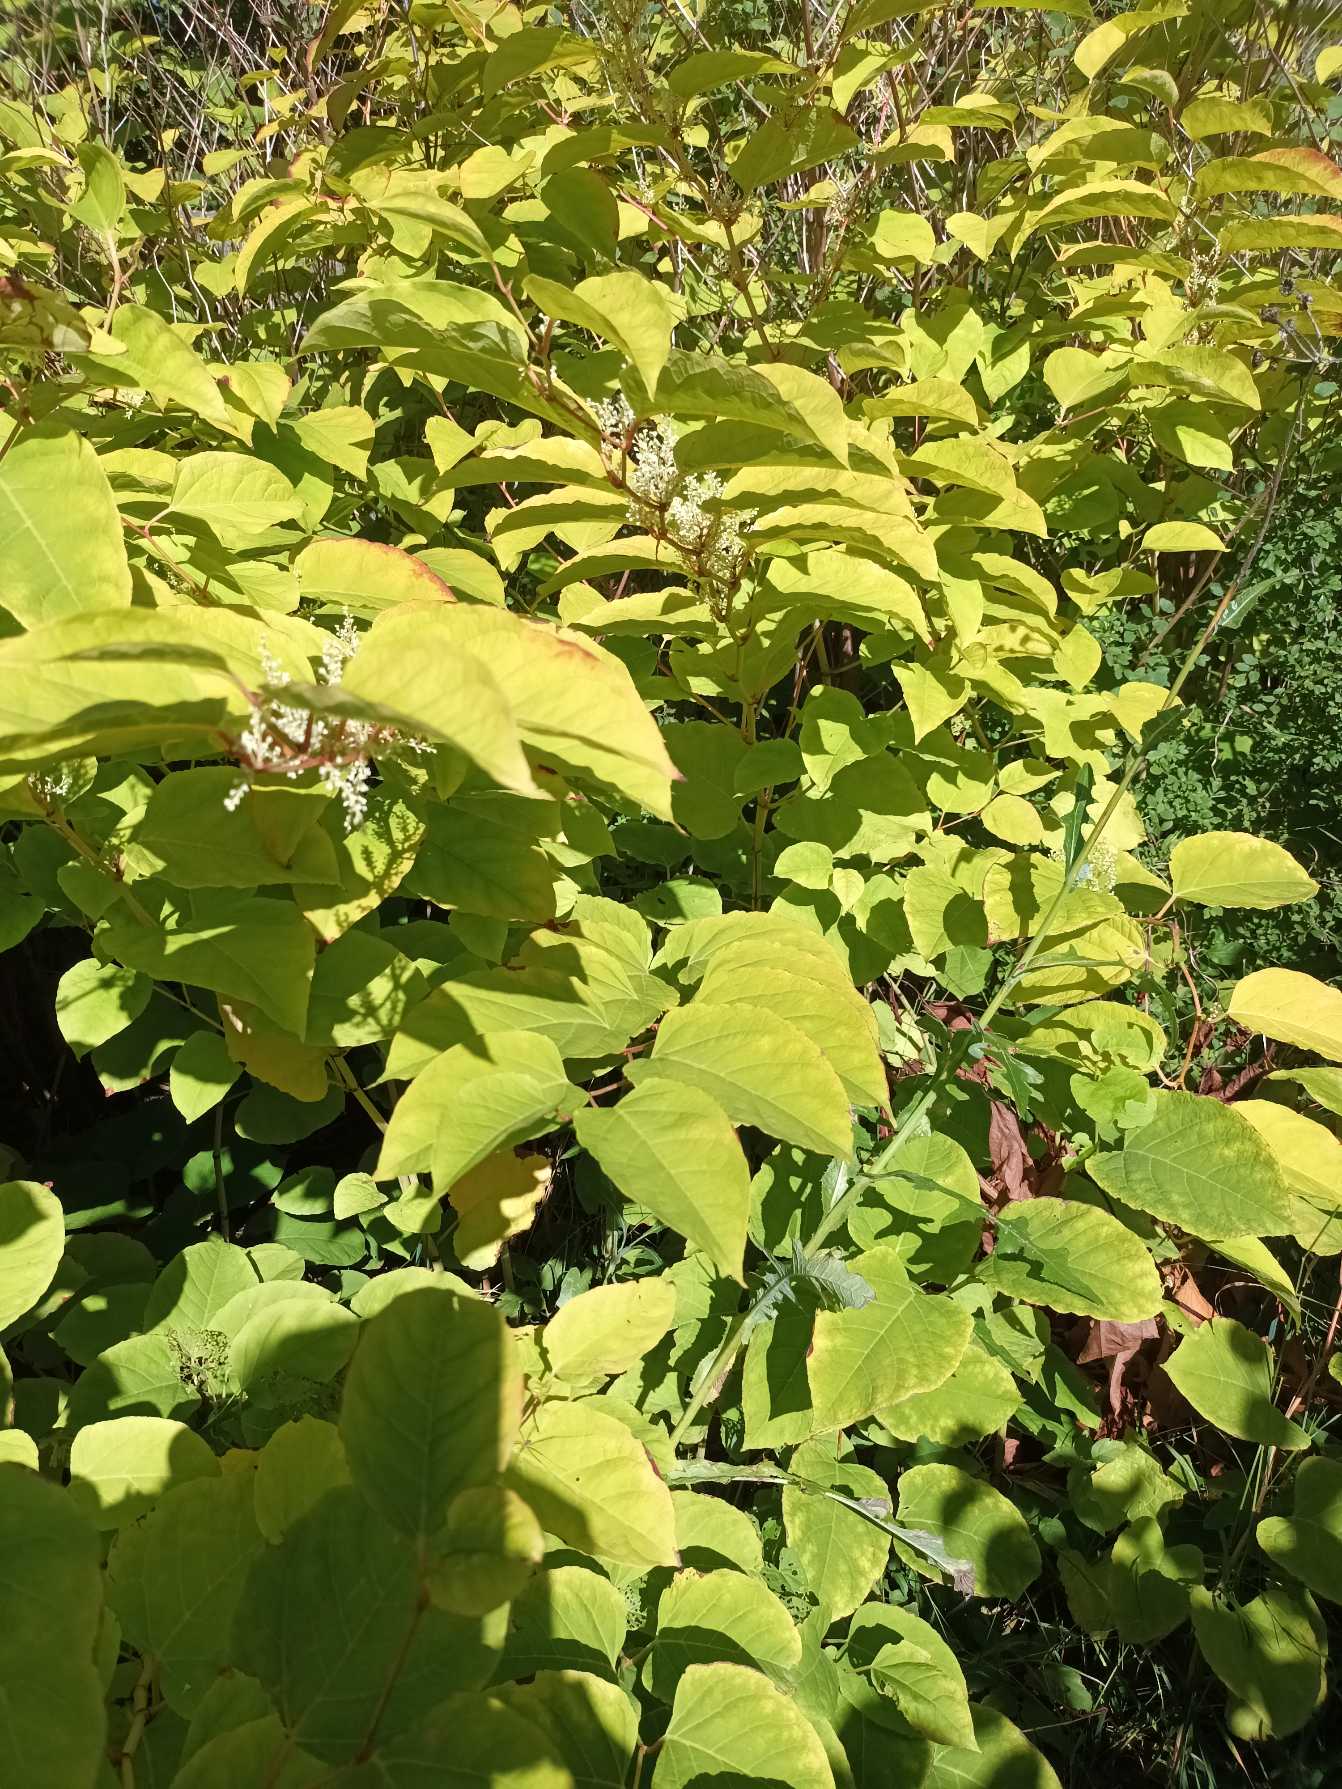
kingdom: Plantae
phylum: Tracheophyta
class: Magnoliopsida
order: Caryophyllales
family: Polygonaceae
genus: Reynoutria
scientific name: Reynoutria japonica
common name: Japan-pileurt
